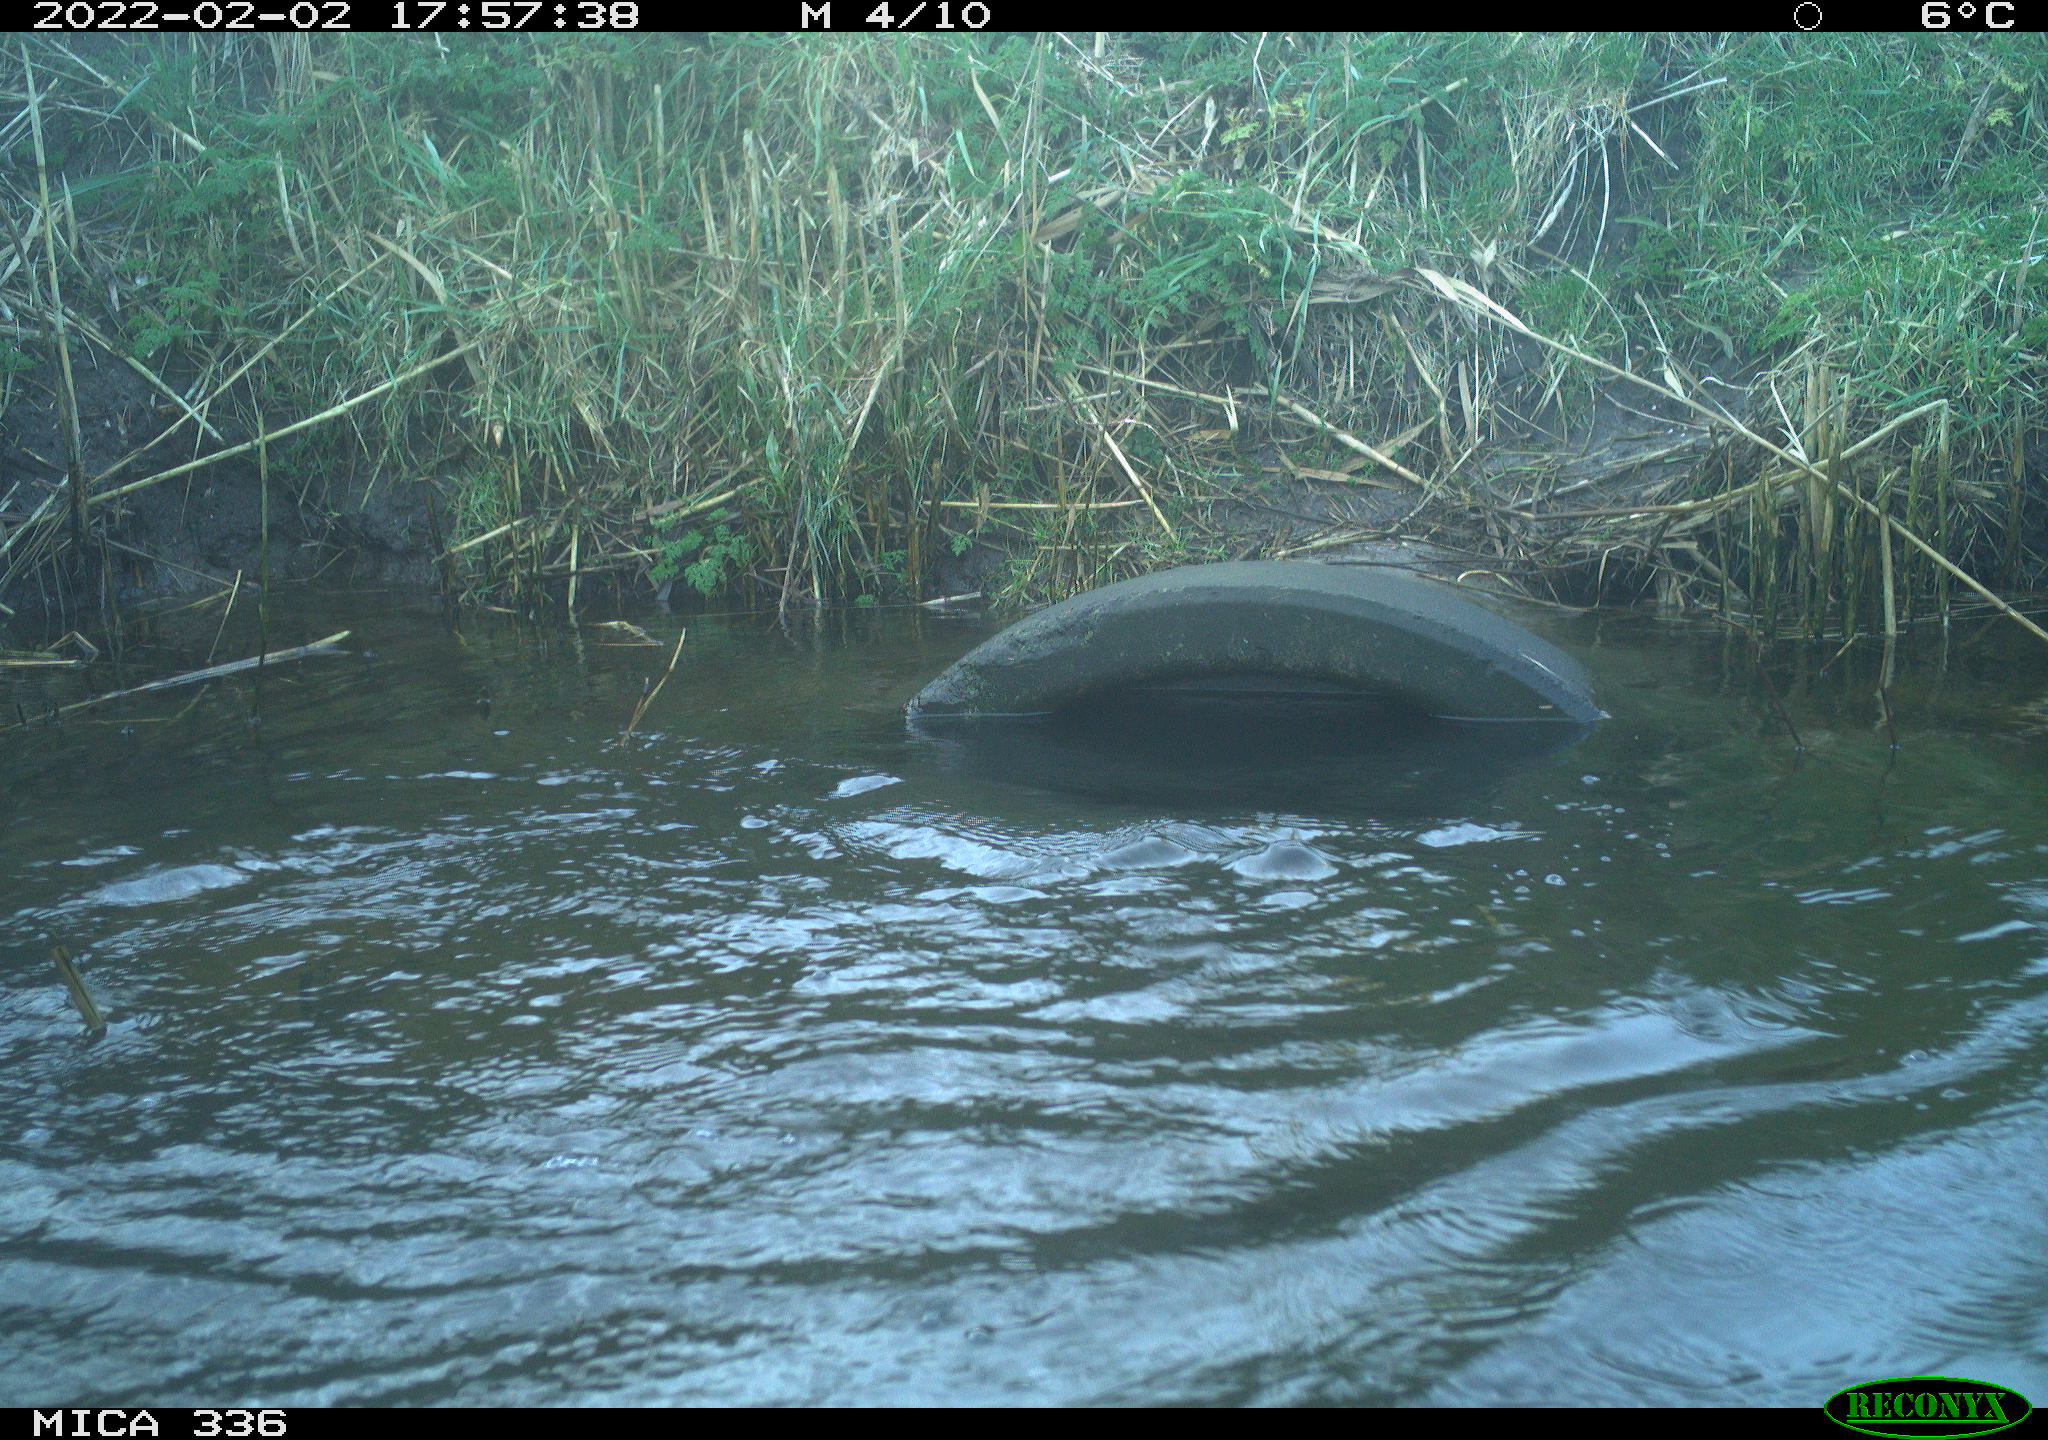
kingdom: Animalia
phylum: Chordata
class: Aves
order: Suliformes
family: Phalacrocoracidae
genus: Phalacrocorax
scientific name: Phalacrocorax carbo
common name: Great cormorant
